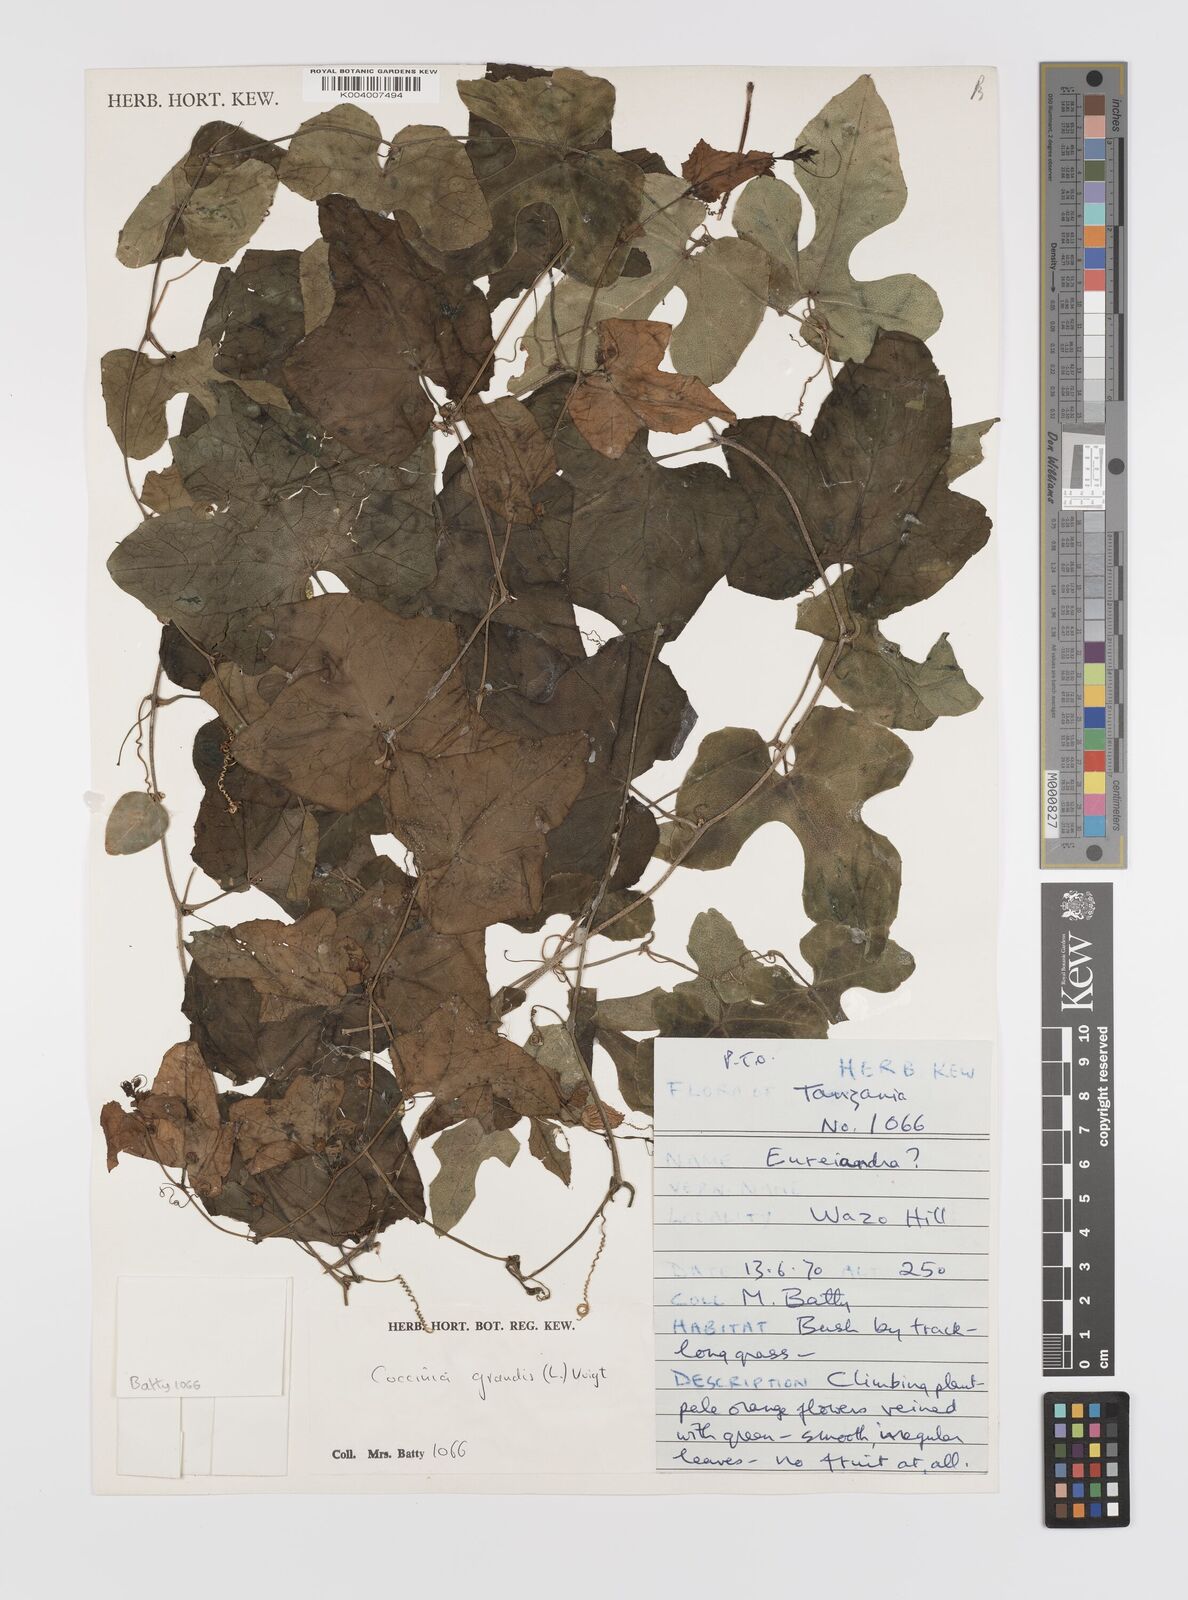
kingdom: Plantae
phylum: Tracheophyta
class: Magnoliopsida
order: Cucurbitales
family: Cucurbitaceae
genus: Coccinia
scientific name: Coccinia grandis
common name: Ivy gourd
